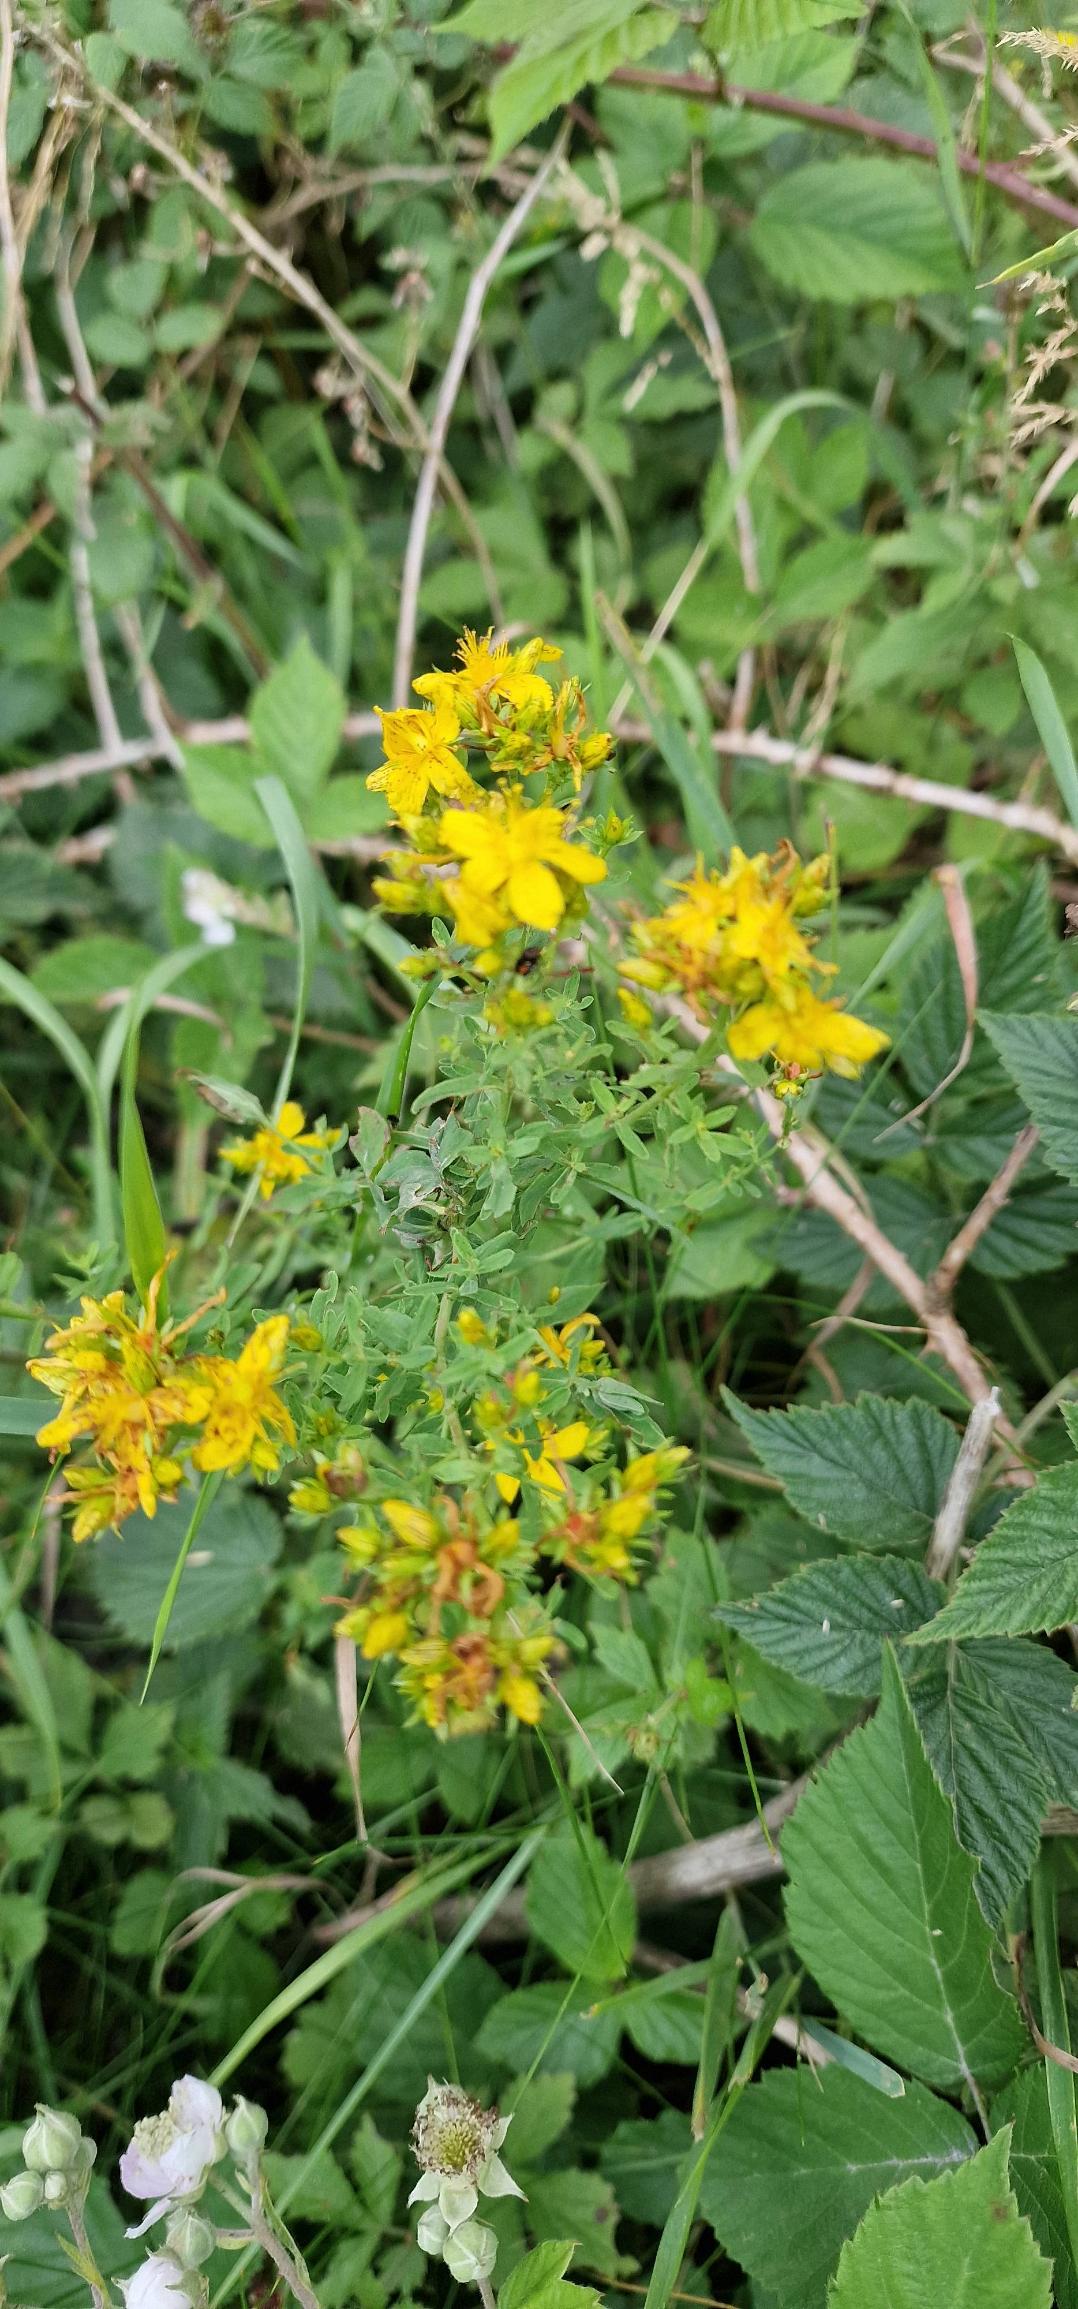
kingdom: Plantae
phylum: Tracheophyta
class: Magnoliopsida
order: Malpighiales
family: Hypericaceae
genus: Hypericum
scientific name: Hypericum perforatum
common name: Prikbladet perikon
